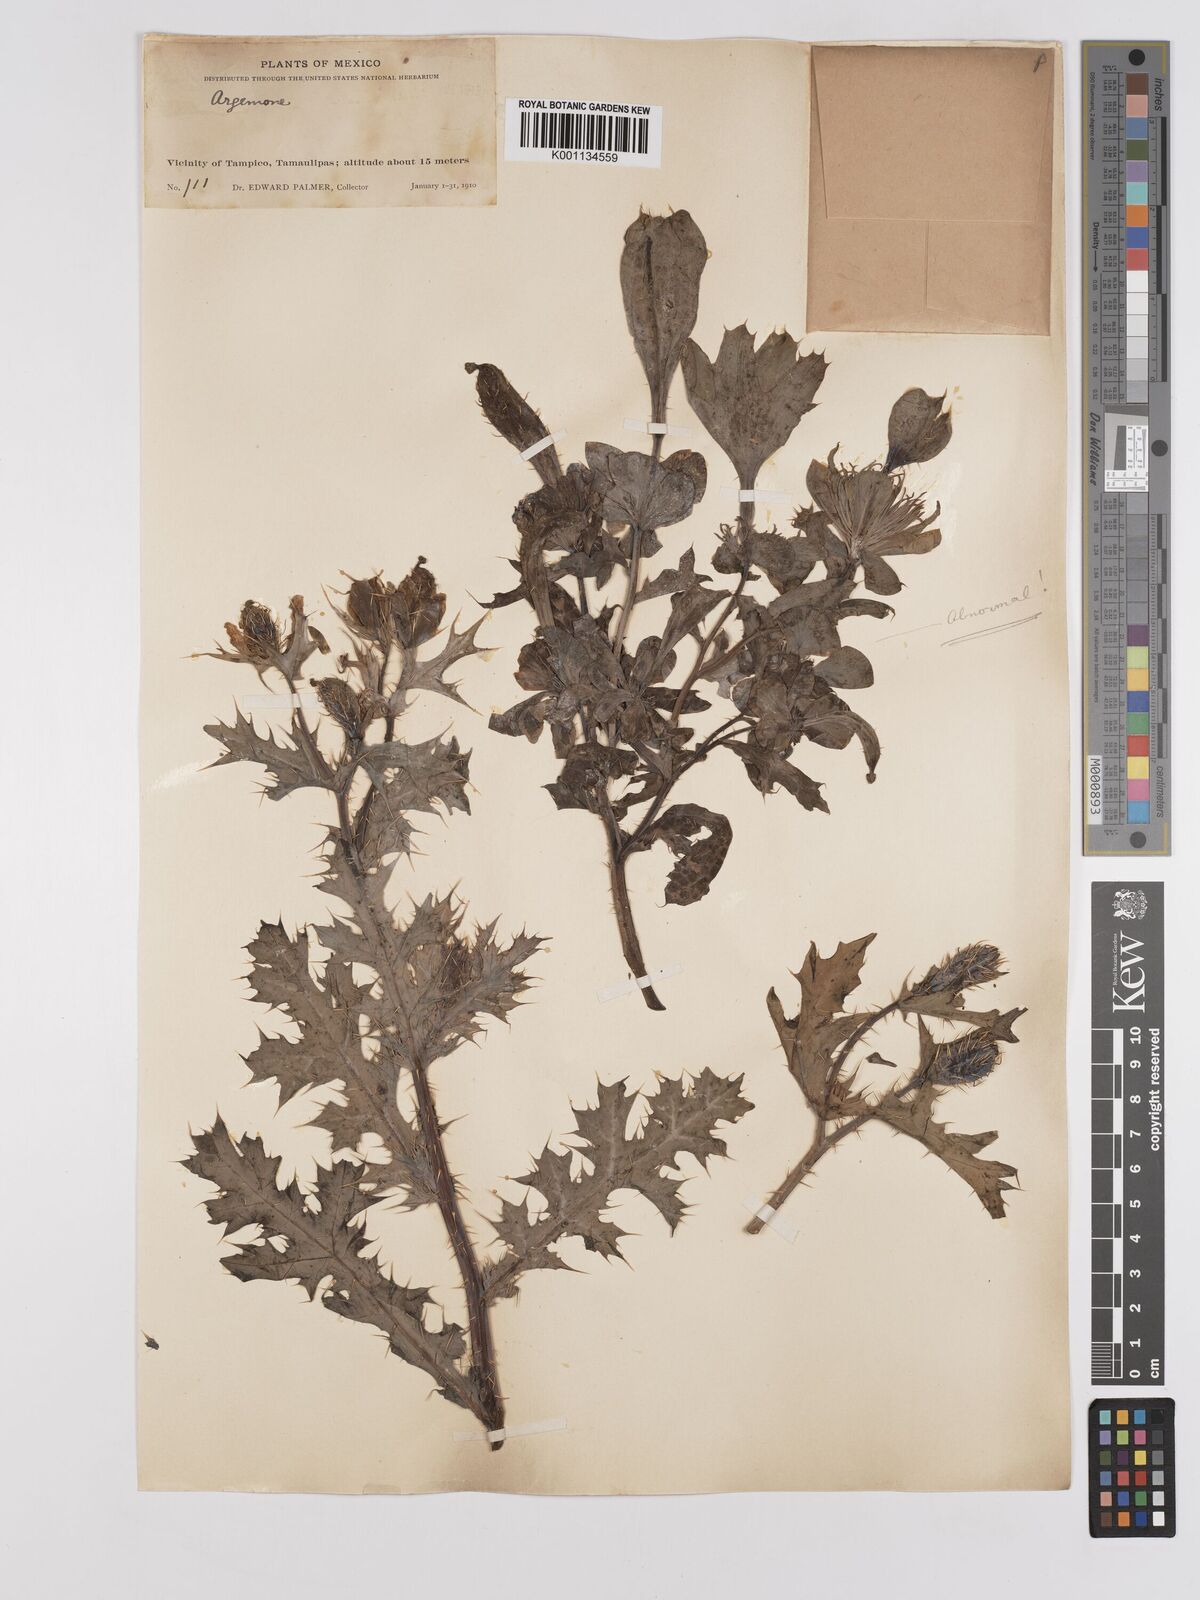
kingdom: Plantae
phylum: Tracheophyta
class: Magnoliopsida
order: Ranunculales
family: Papaveraceae
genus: Argemone
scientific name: Argemone mexicana
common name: Mexican poppy
